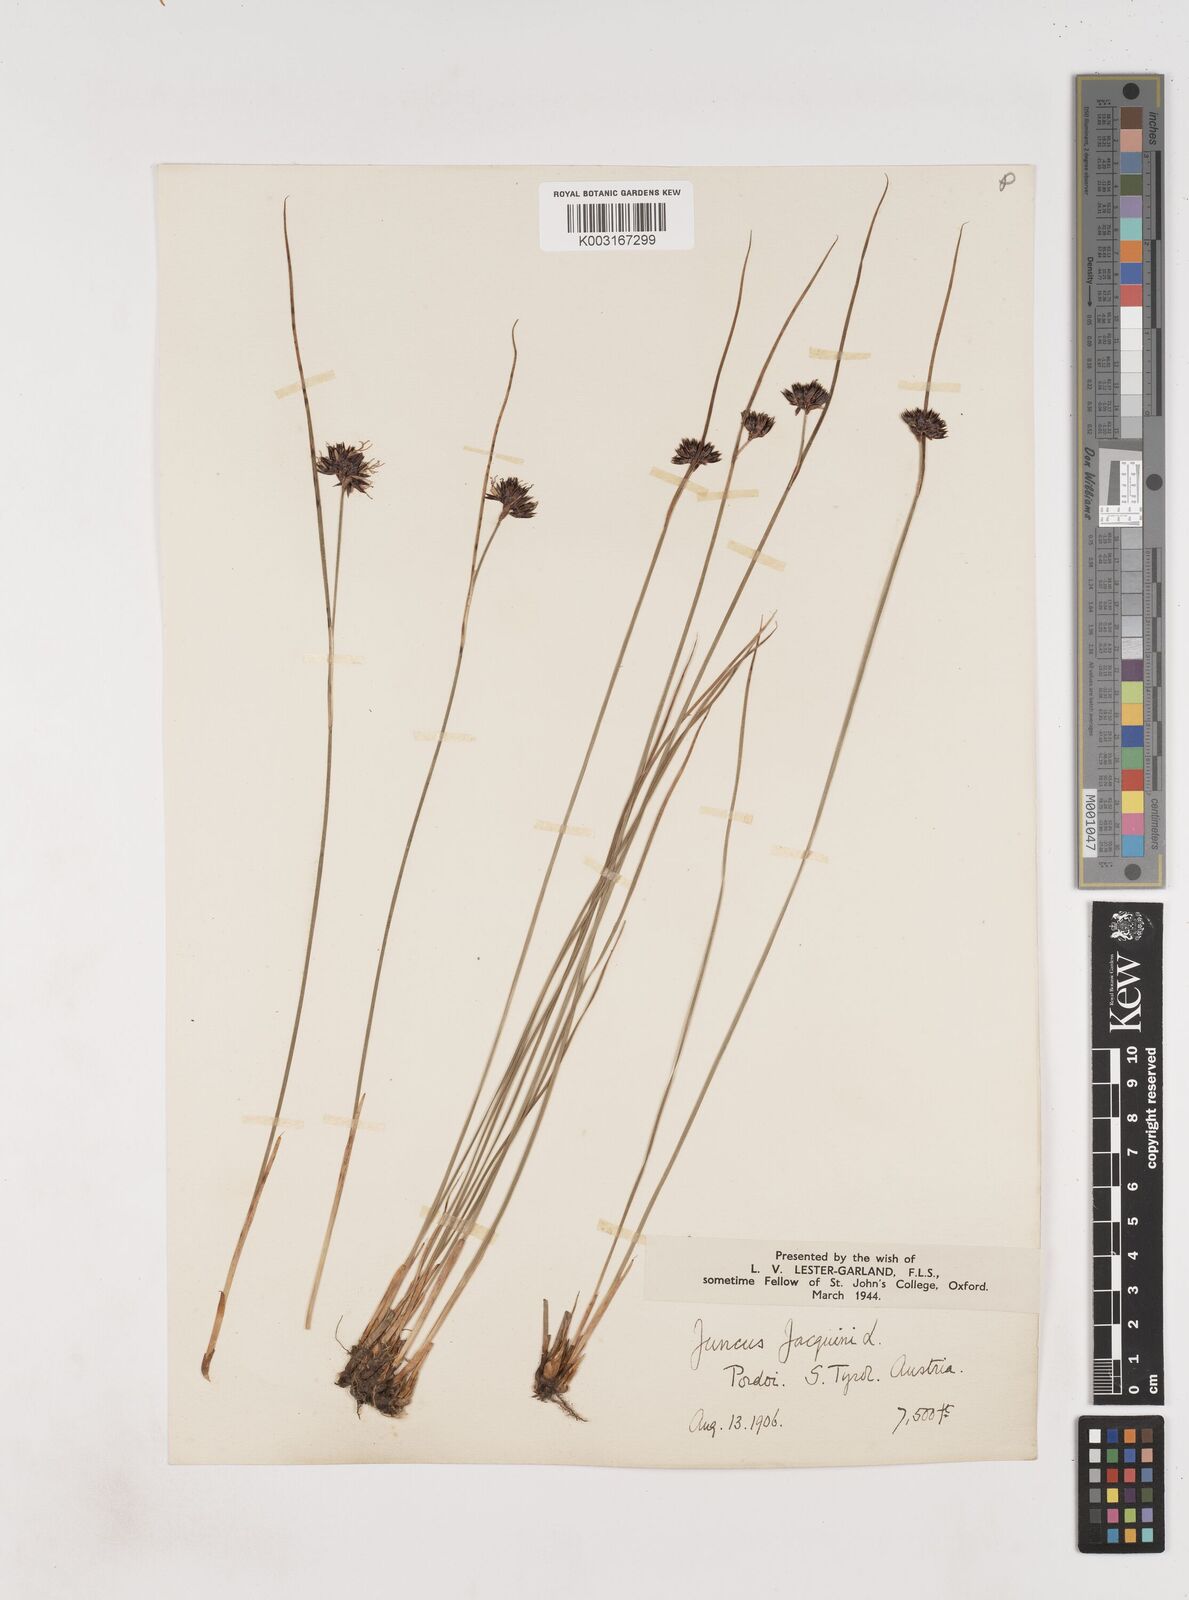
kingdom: Plantae
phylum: Tracheophyta
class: Liliopsida
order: Poales
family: Juncaceae
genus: Juncus
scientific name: Juncus jacquinii
